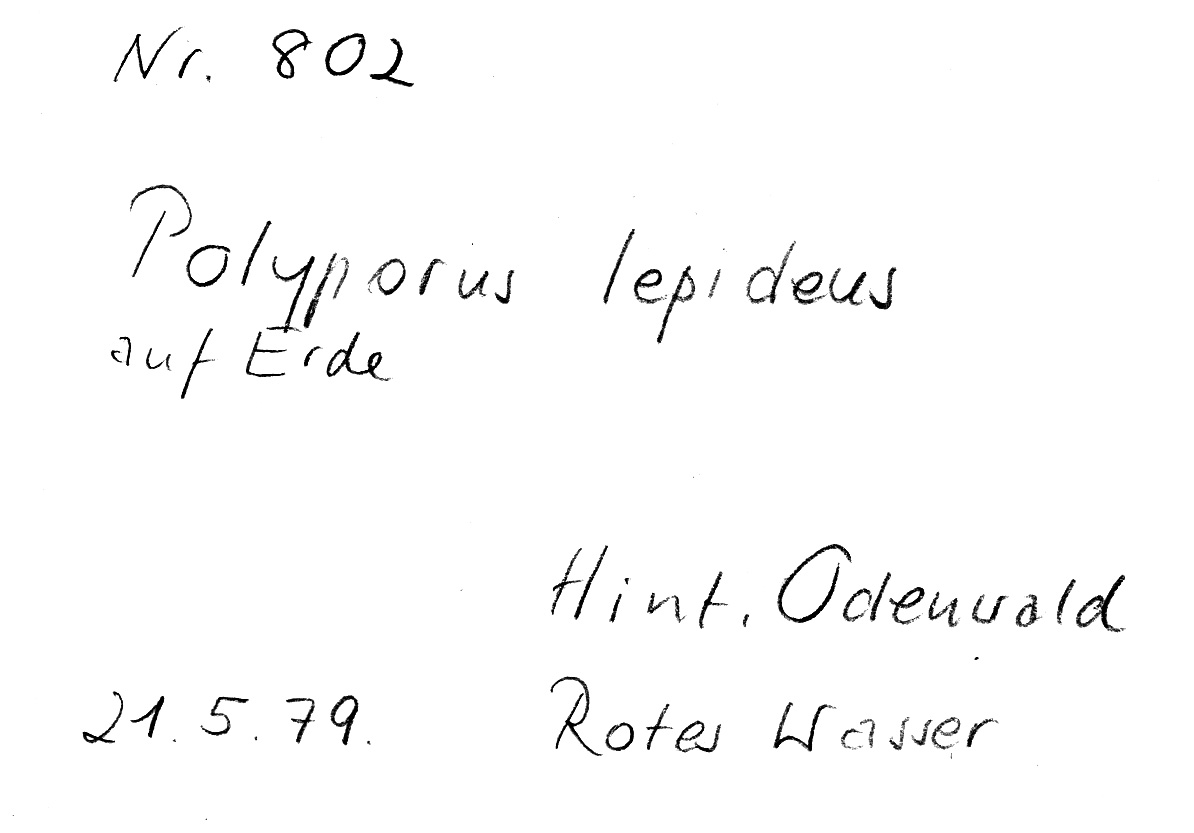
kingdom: Fungi
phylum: Basidiomycota
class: Agaricomycetes
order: Polyporales
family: Polyporaceae
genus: Polyporus
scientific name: Polyporus lepideus
